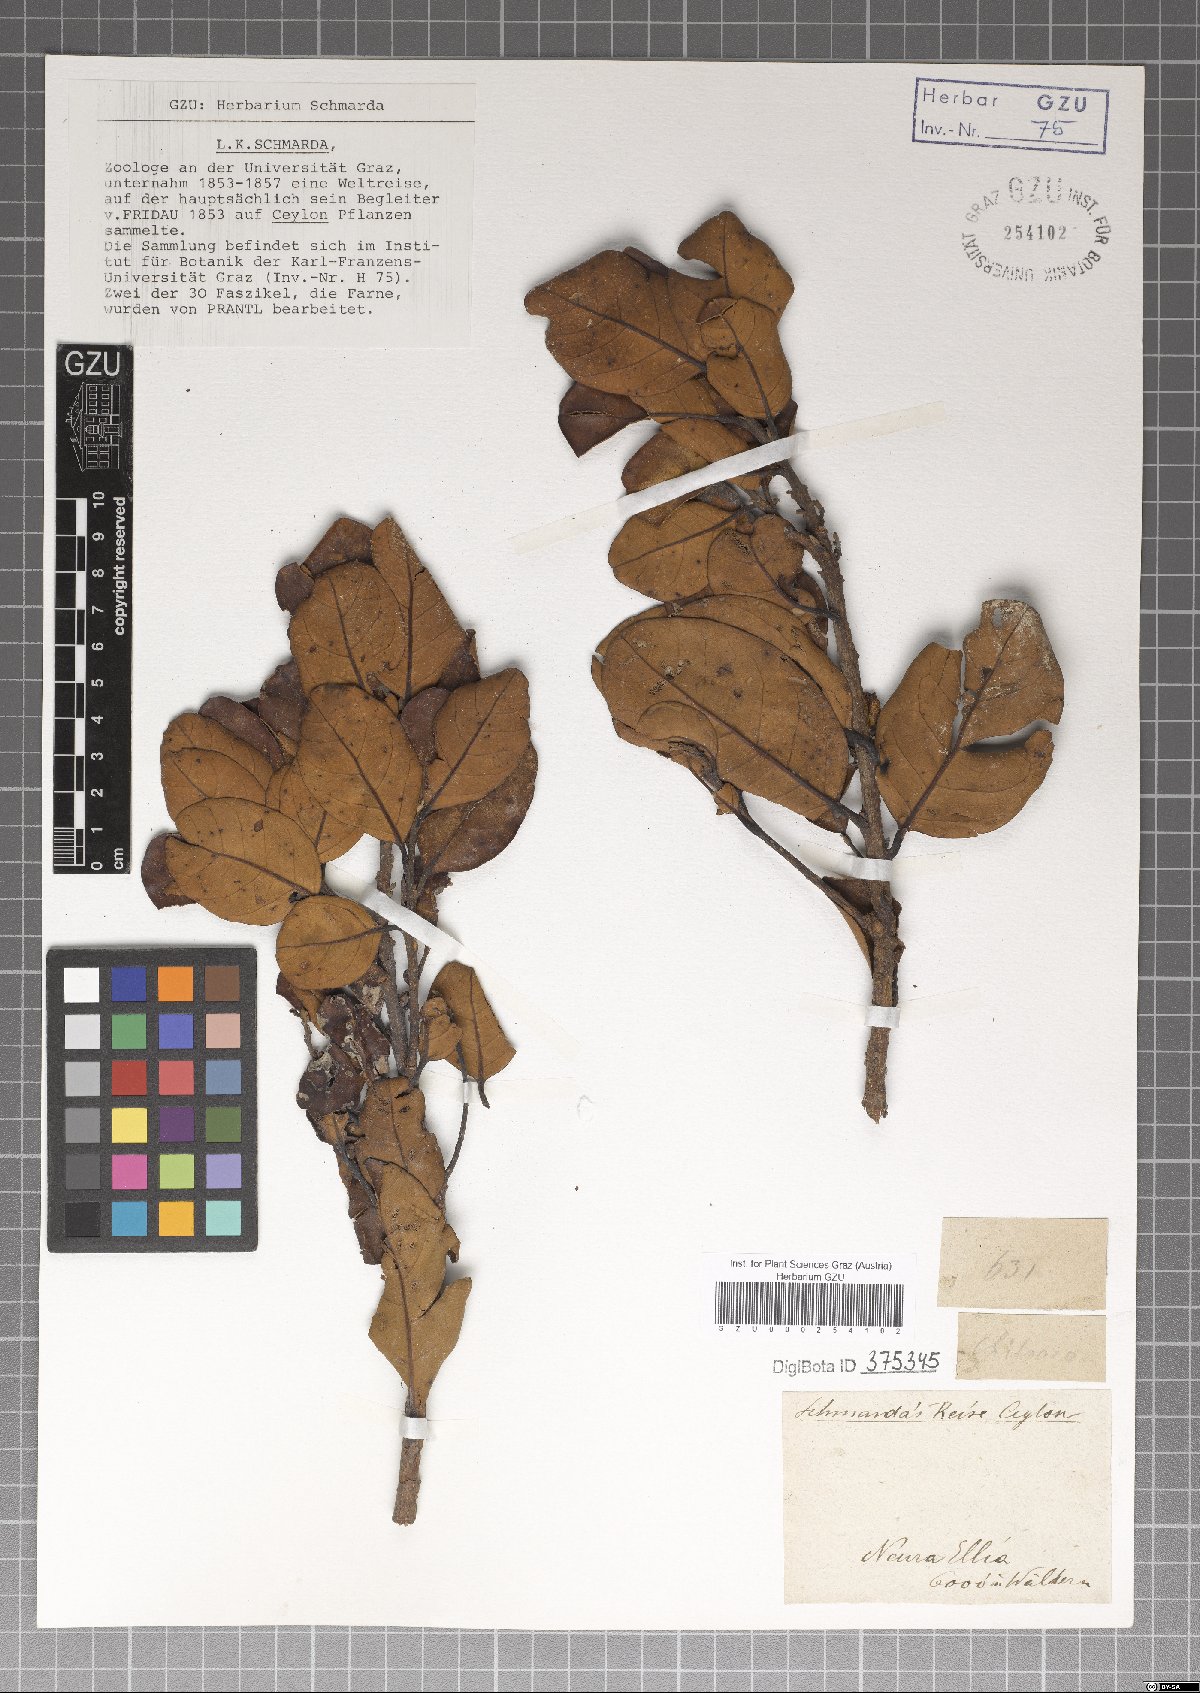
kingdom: Plantae
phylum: Tracheophyta
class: Magnoliopsida
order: Laurales
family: Lauraceae
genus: Litsea
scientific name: Litsea
